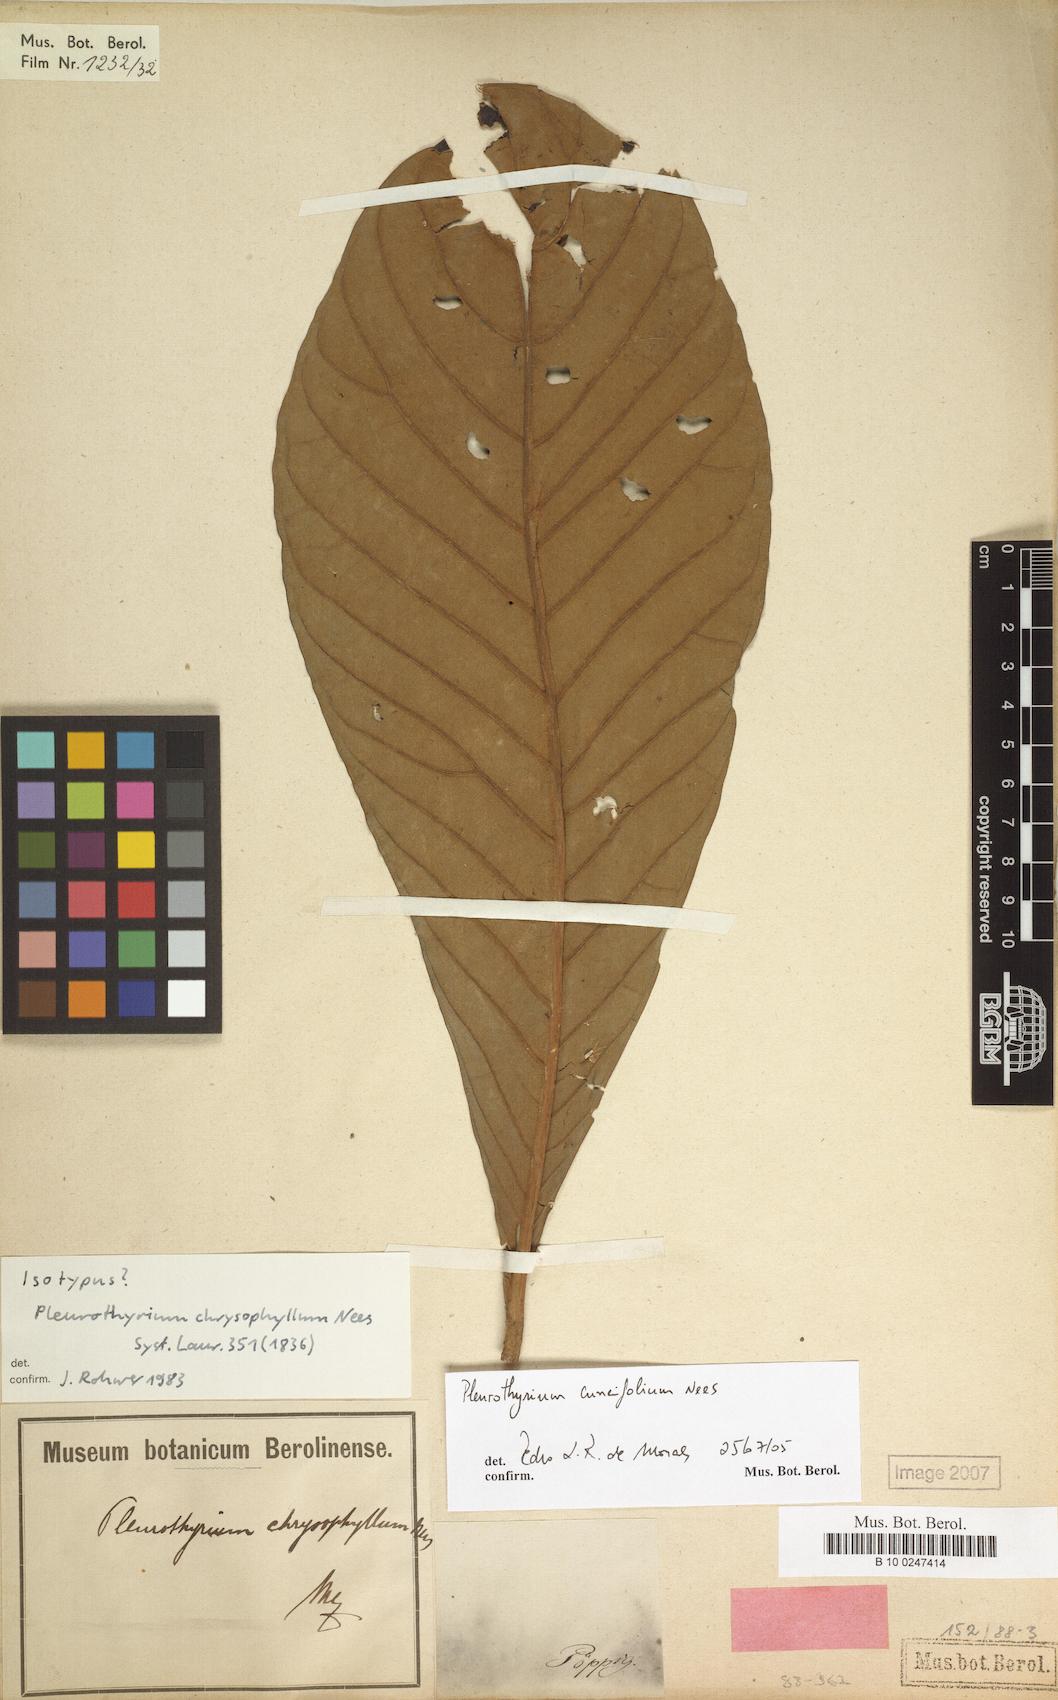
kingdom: Plantae
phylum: Tracheophyta
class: Magnoliopsida
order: Laurales
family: Lauraceae
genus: Pleurothyrium
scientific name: Pleurothyrium cuneifolium
